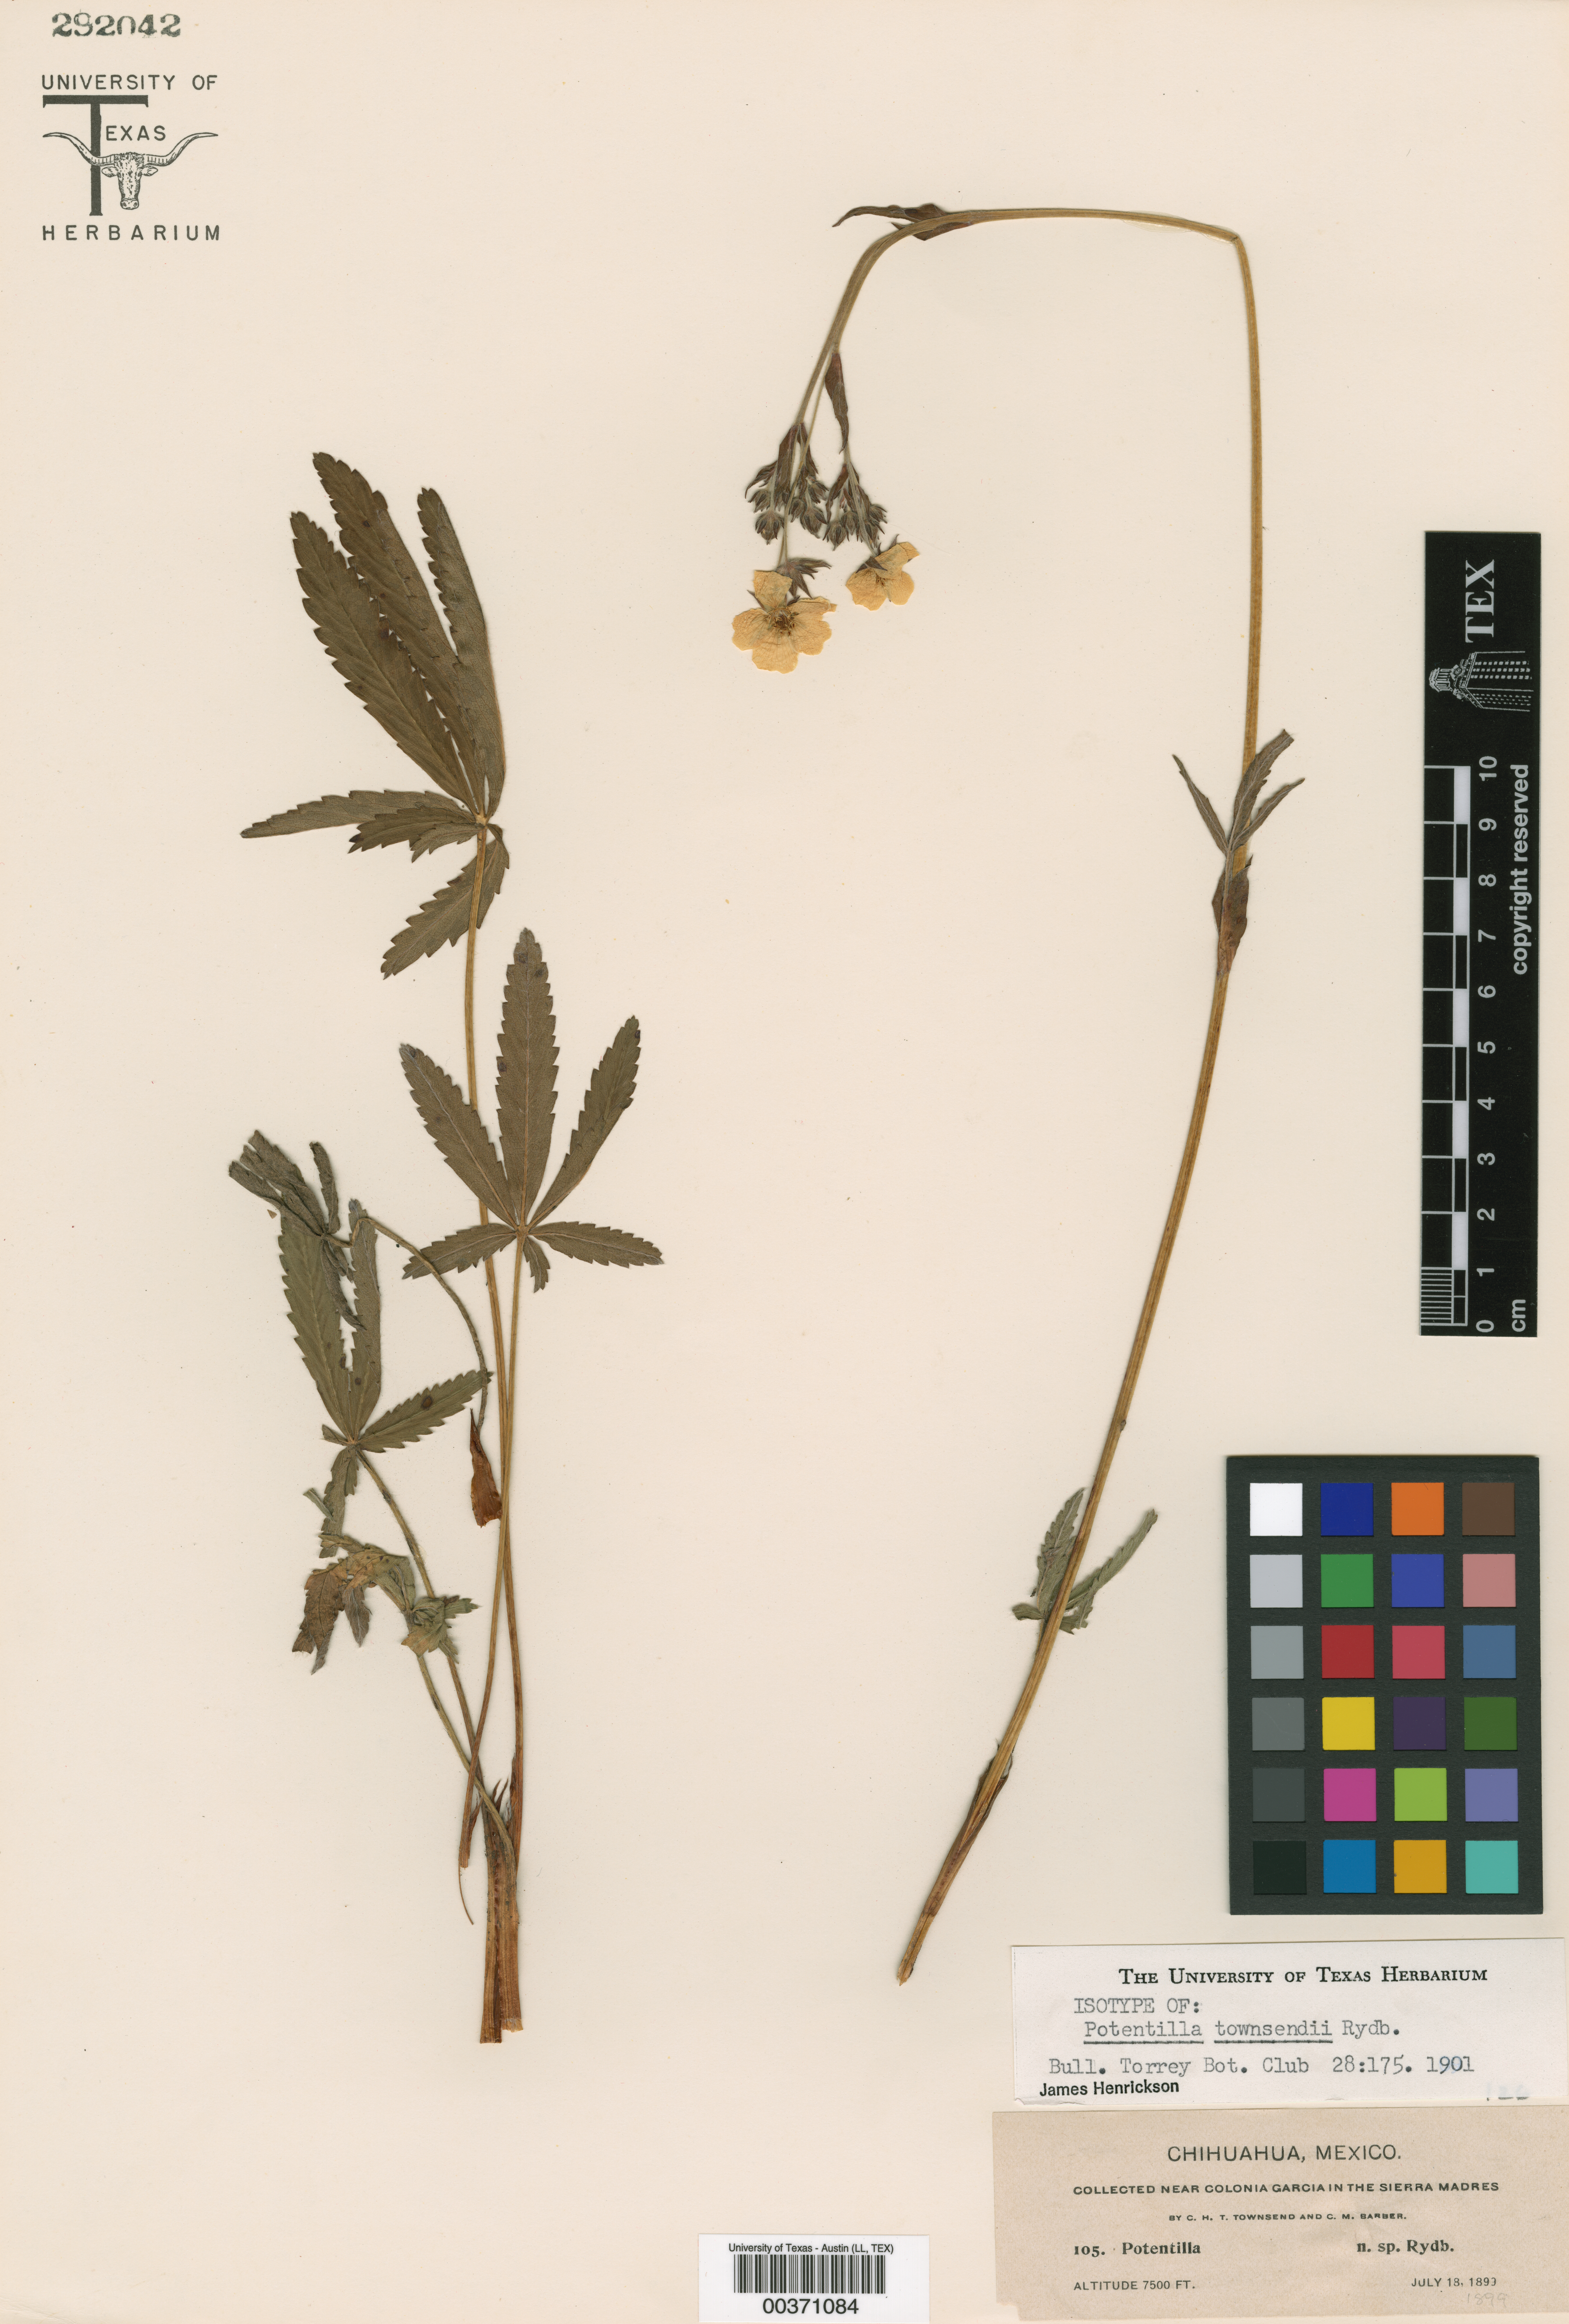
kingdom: Plantae
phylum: Tracheophyta
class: Magnoliopsida
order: Rosales
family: Rosaceae
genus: Potentilla
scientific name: Potentilla townsendii
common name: Townsend's cinquefoil
